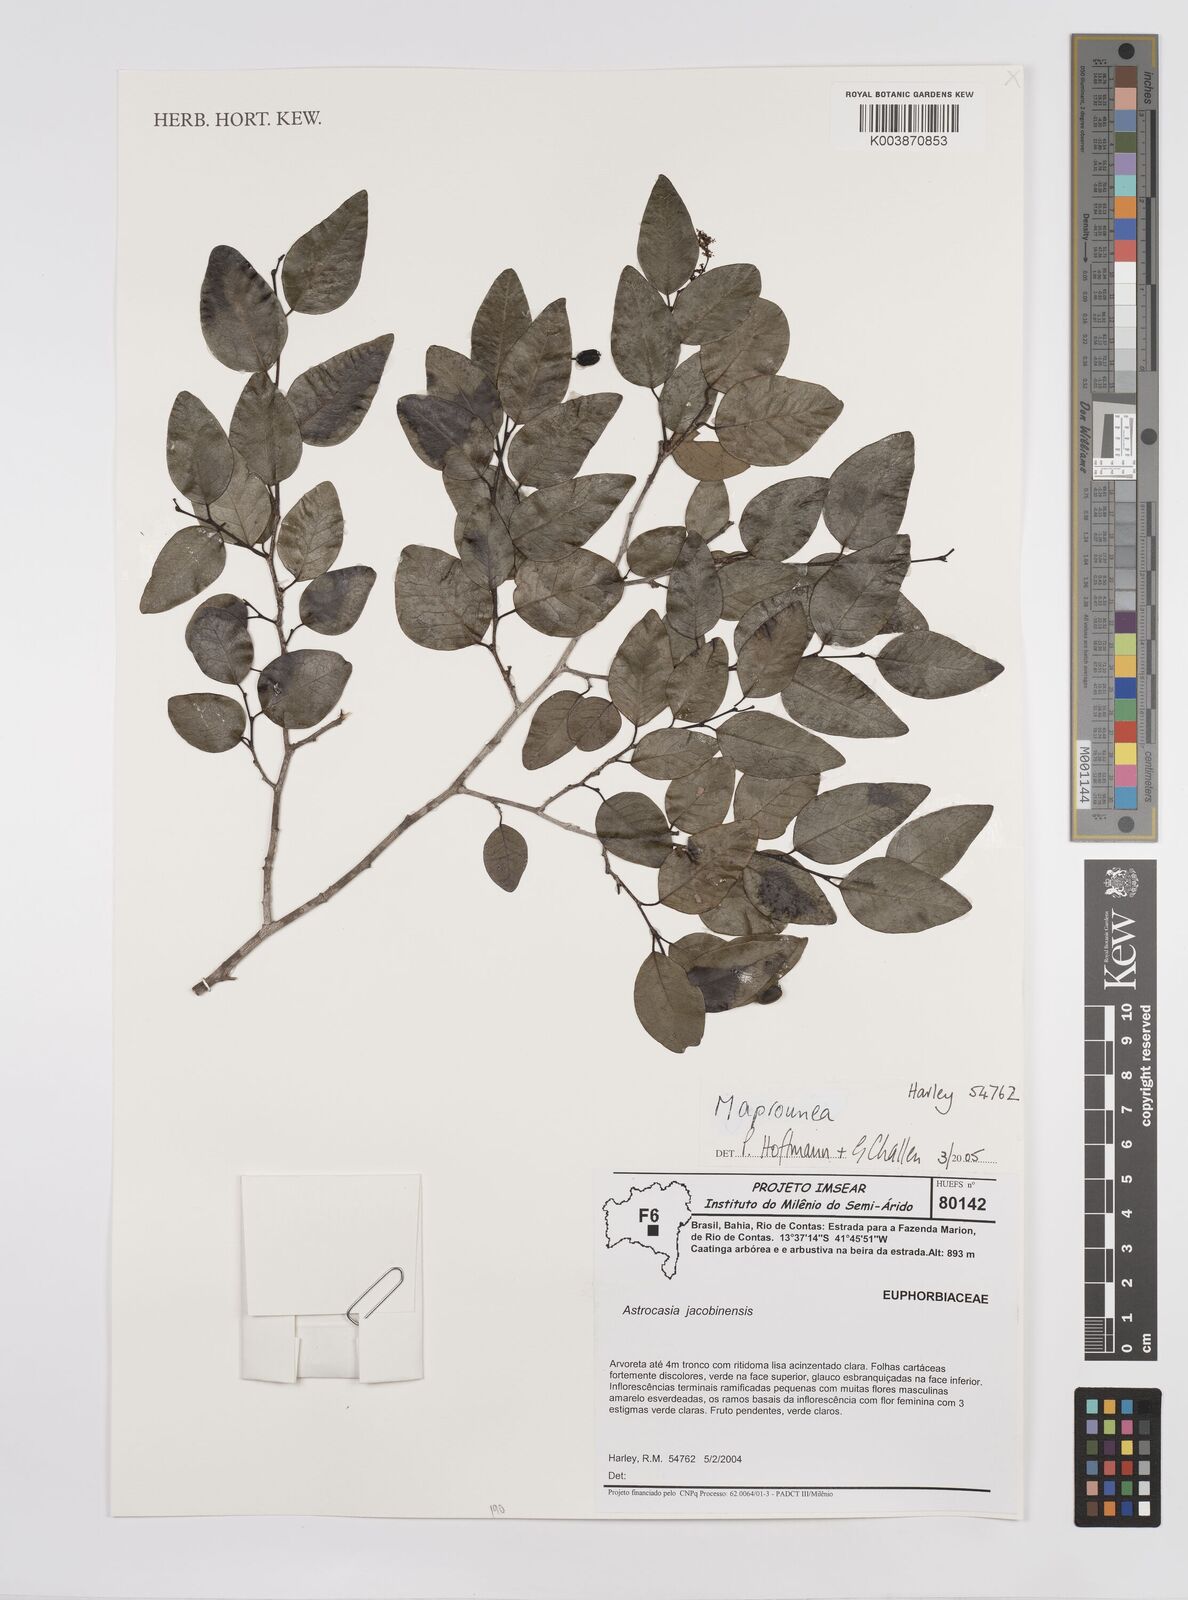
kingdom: Plantae
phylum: Tracheophyta
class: Magnoliopsida
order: Malpighiales
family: Euphorbiaceae
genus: Maprounea
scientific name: Maprounea
